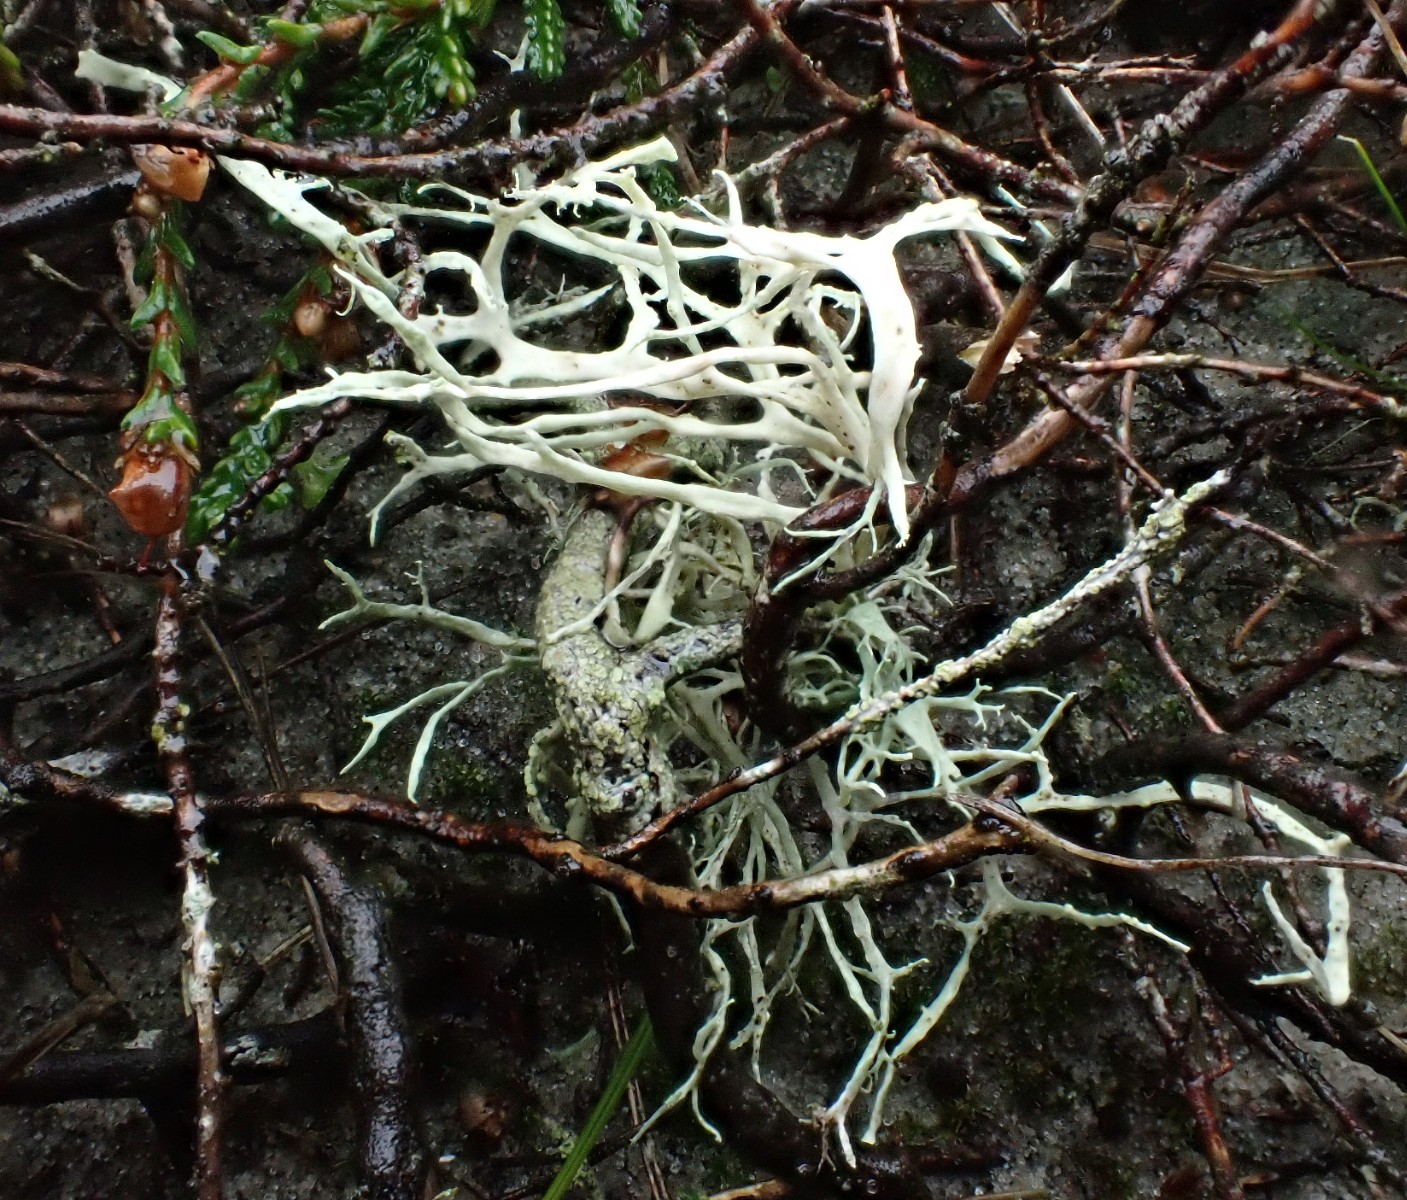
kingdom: Fungi
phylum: Ascomycota
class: Lecanoromycetes
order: Lecanorales
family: Ramalinaceae
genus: Ramalina
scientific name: Ramalina farinacea
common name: melet grenlav
